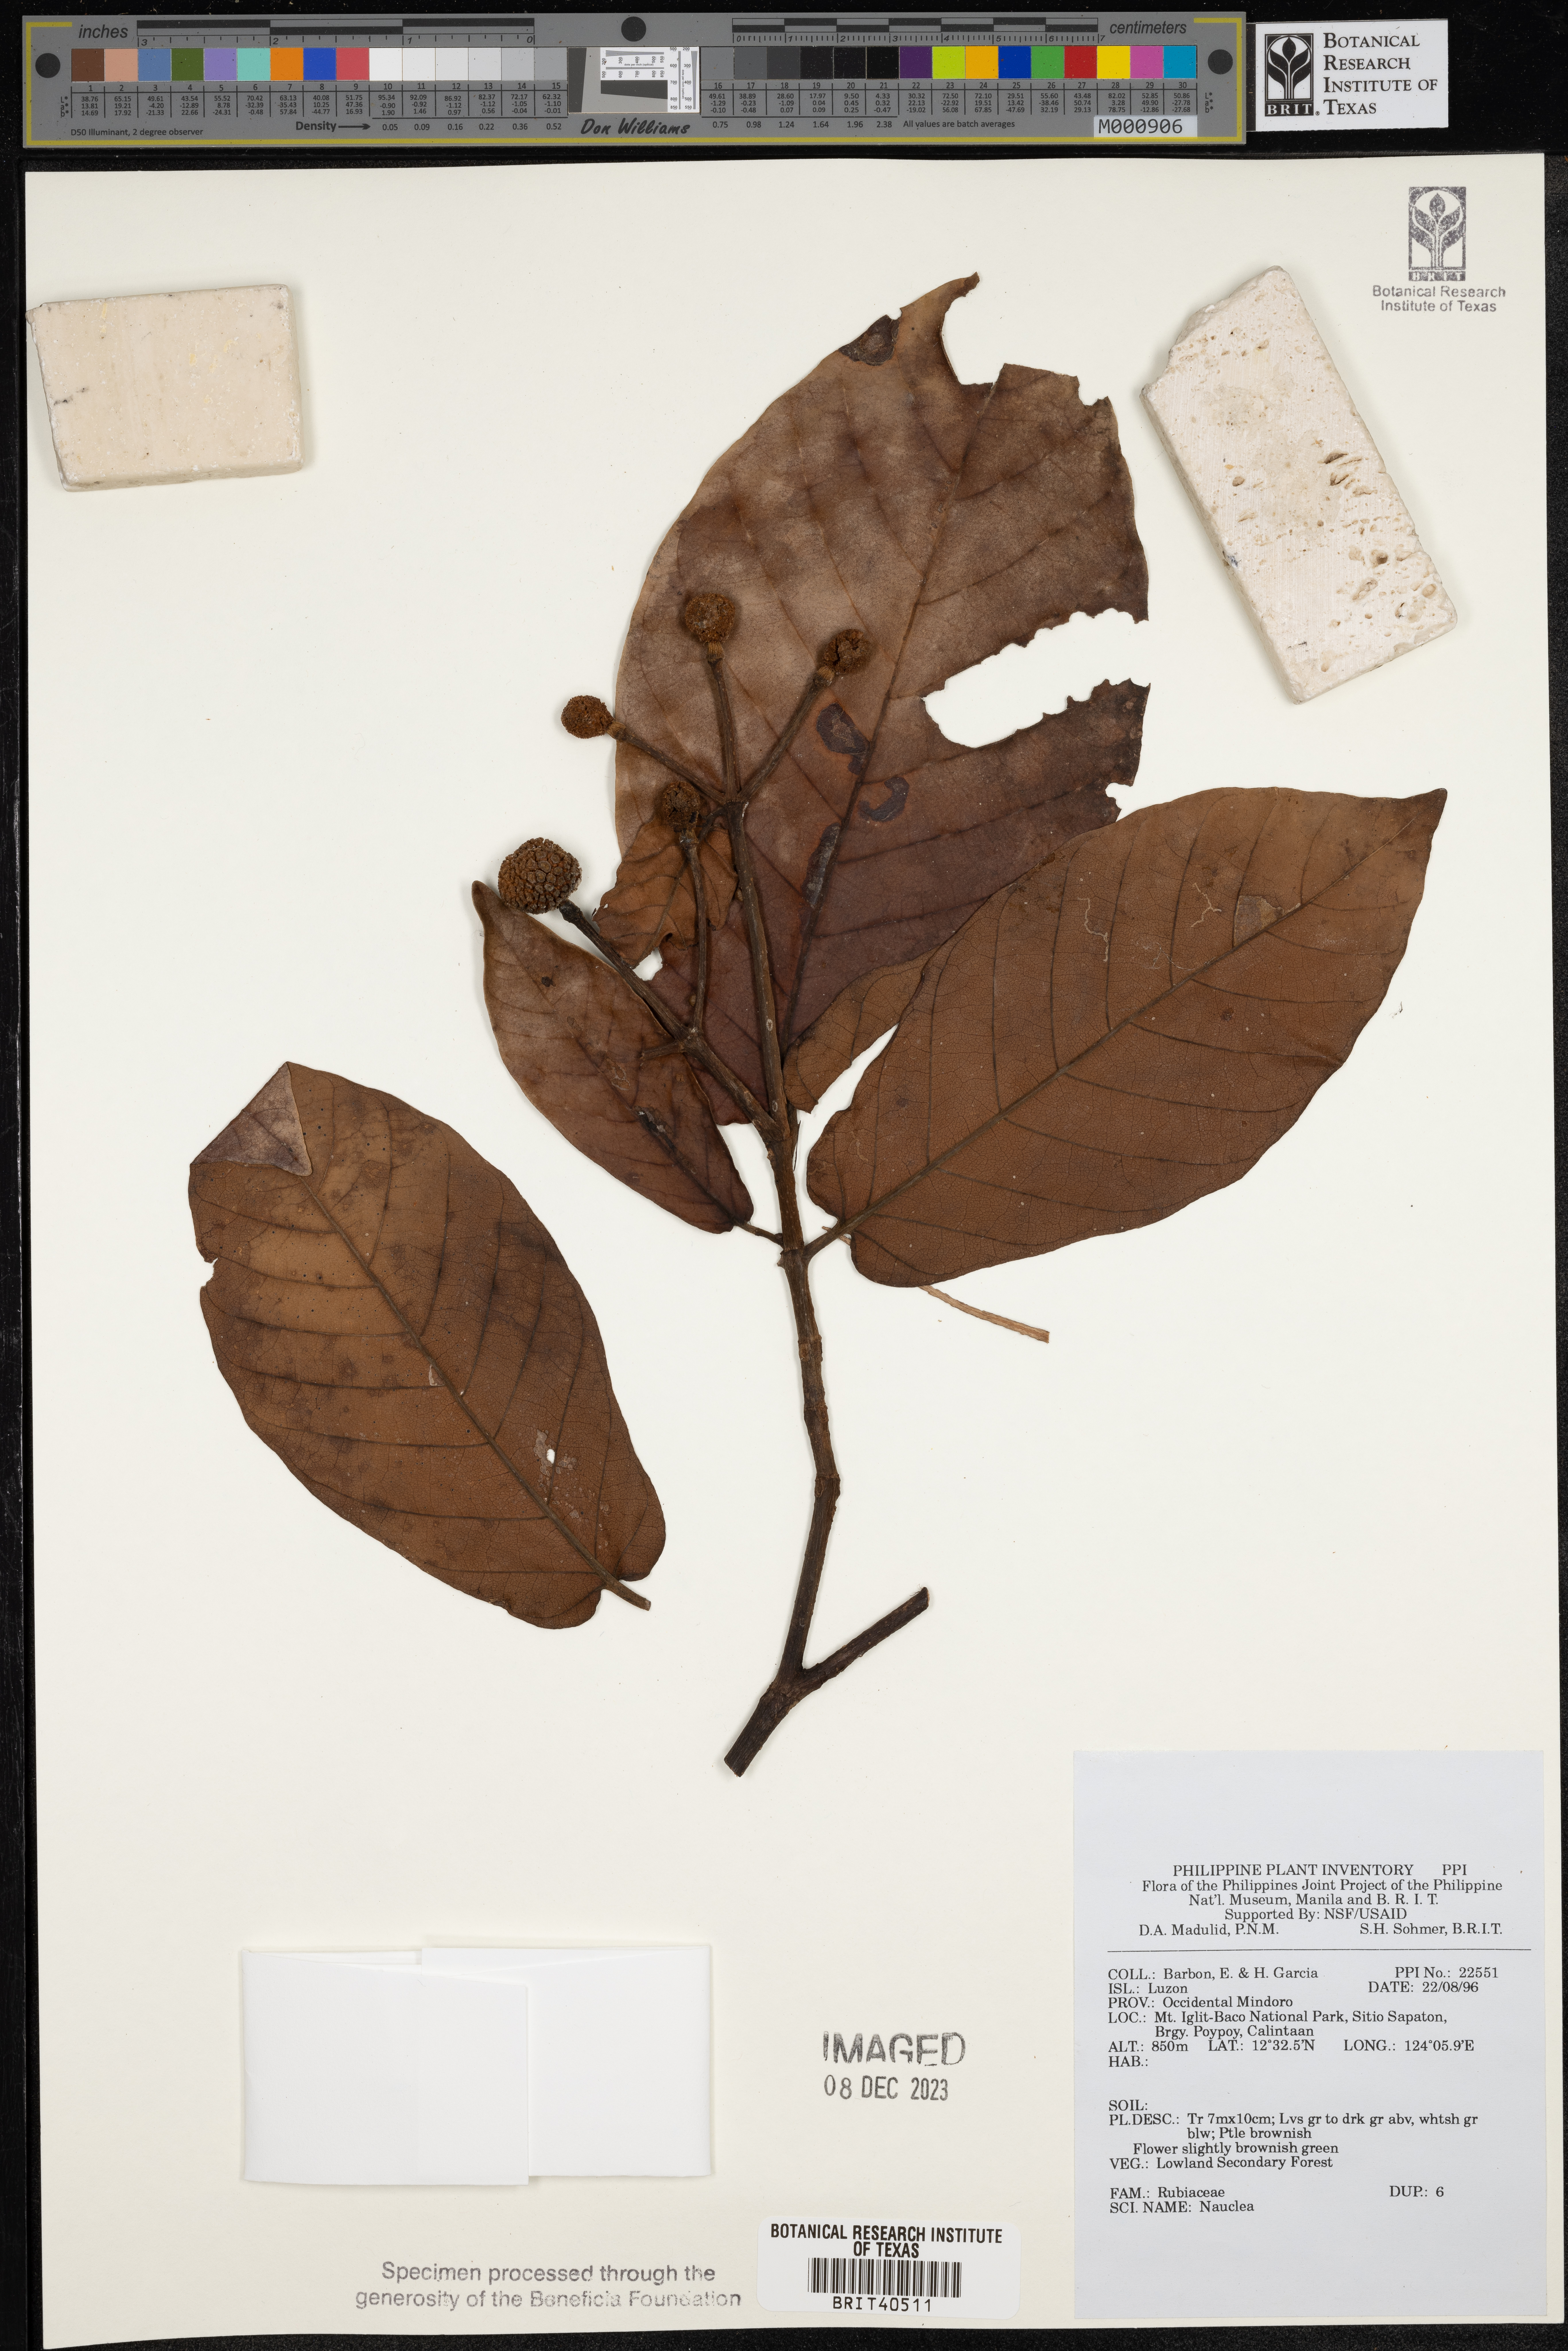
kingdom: Plantae
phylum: Tracheophyta
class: Magnoliopsida
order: Gentianales
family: Rubiaceae
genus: Nauclea
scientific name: Nauclea
